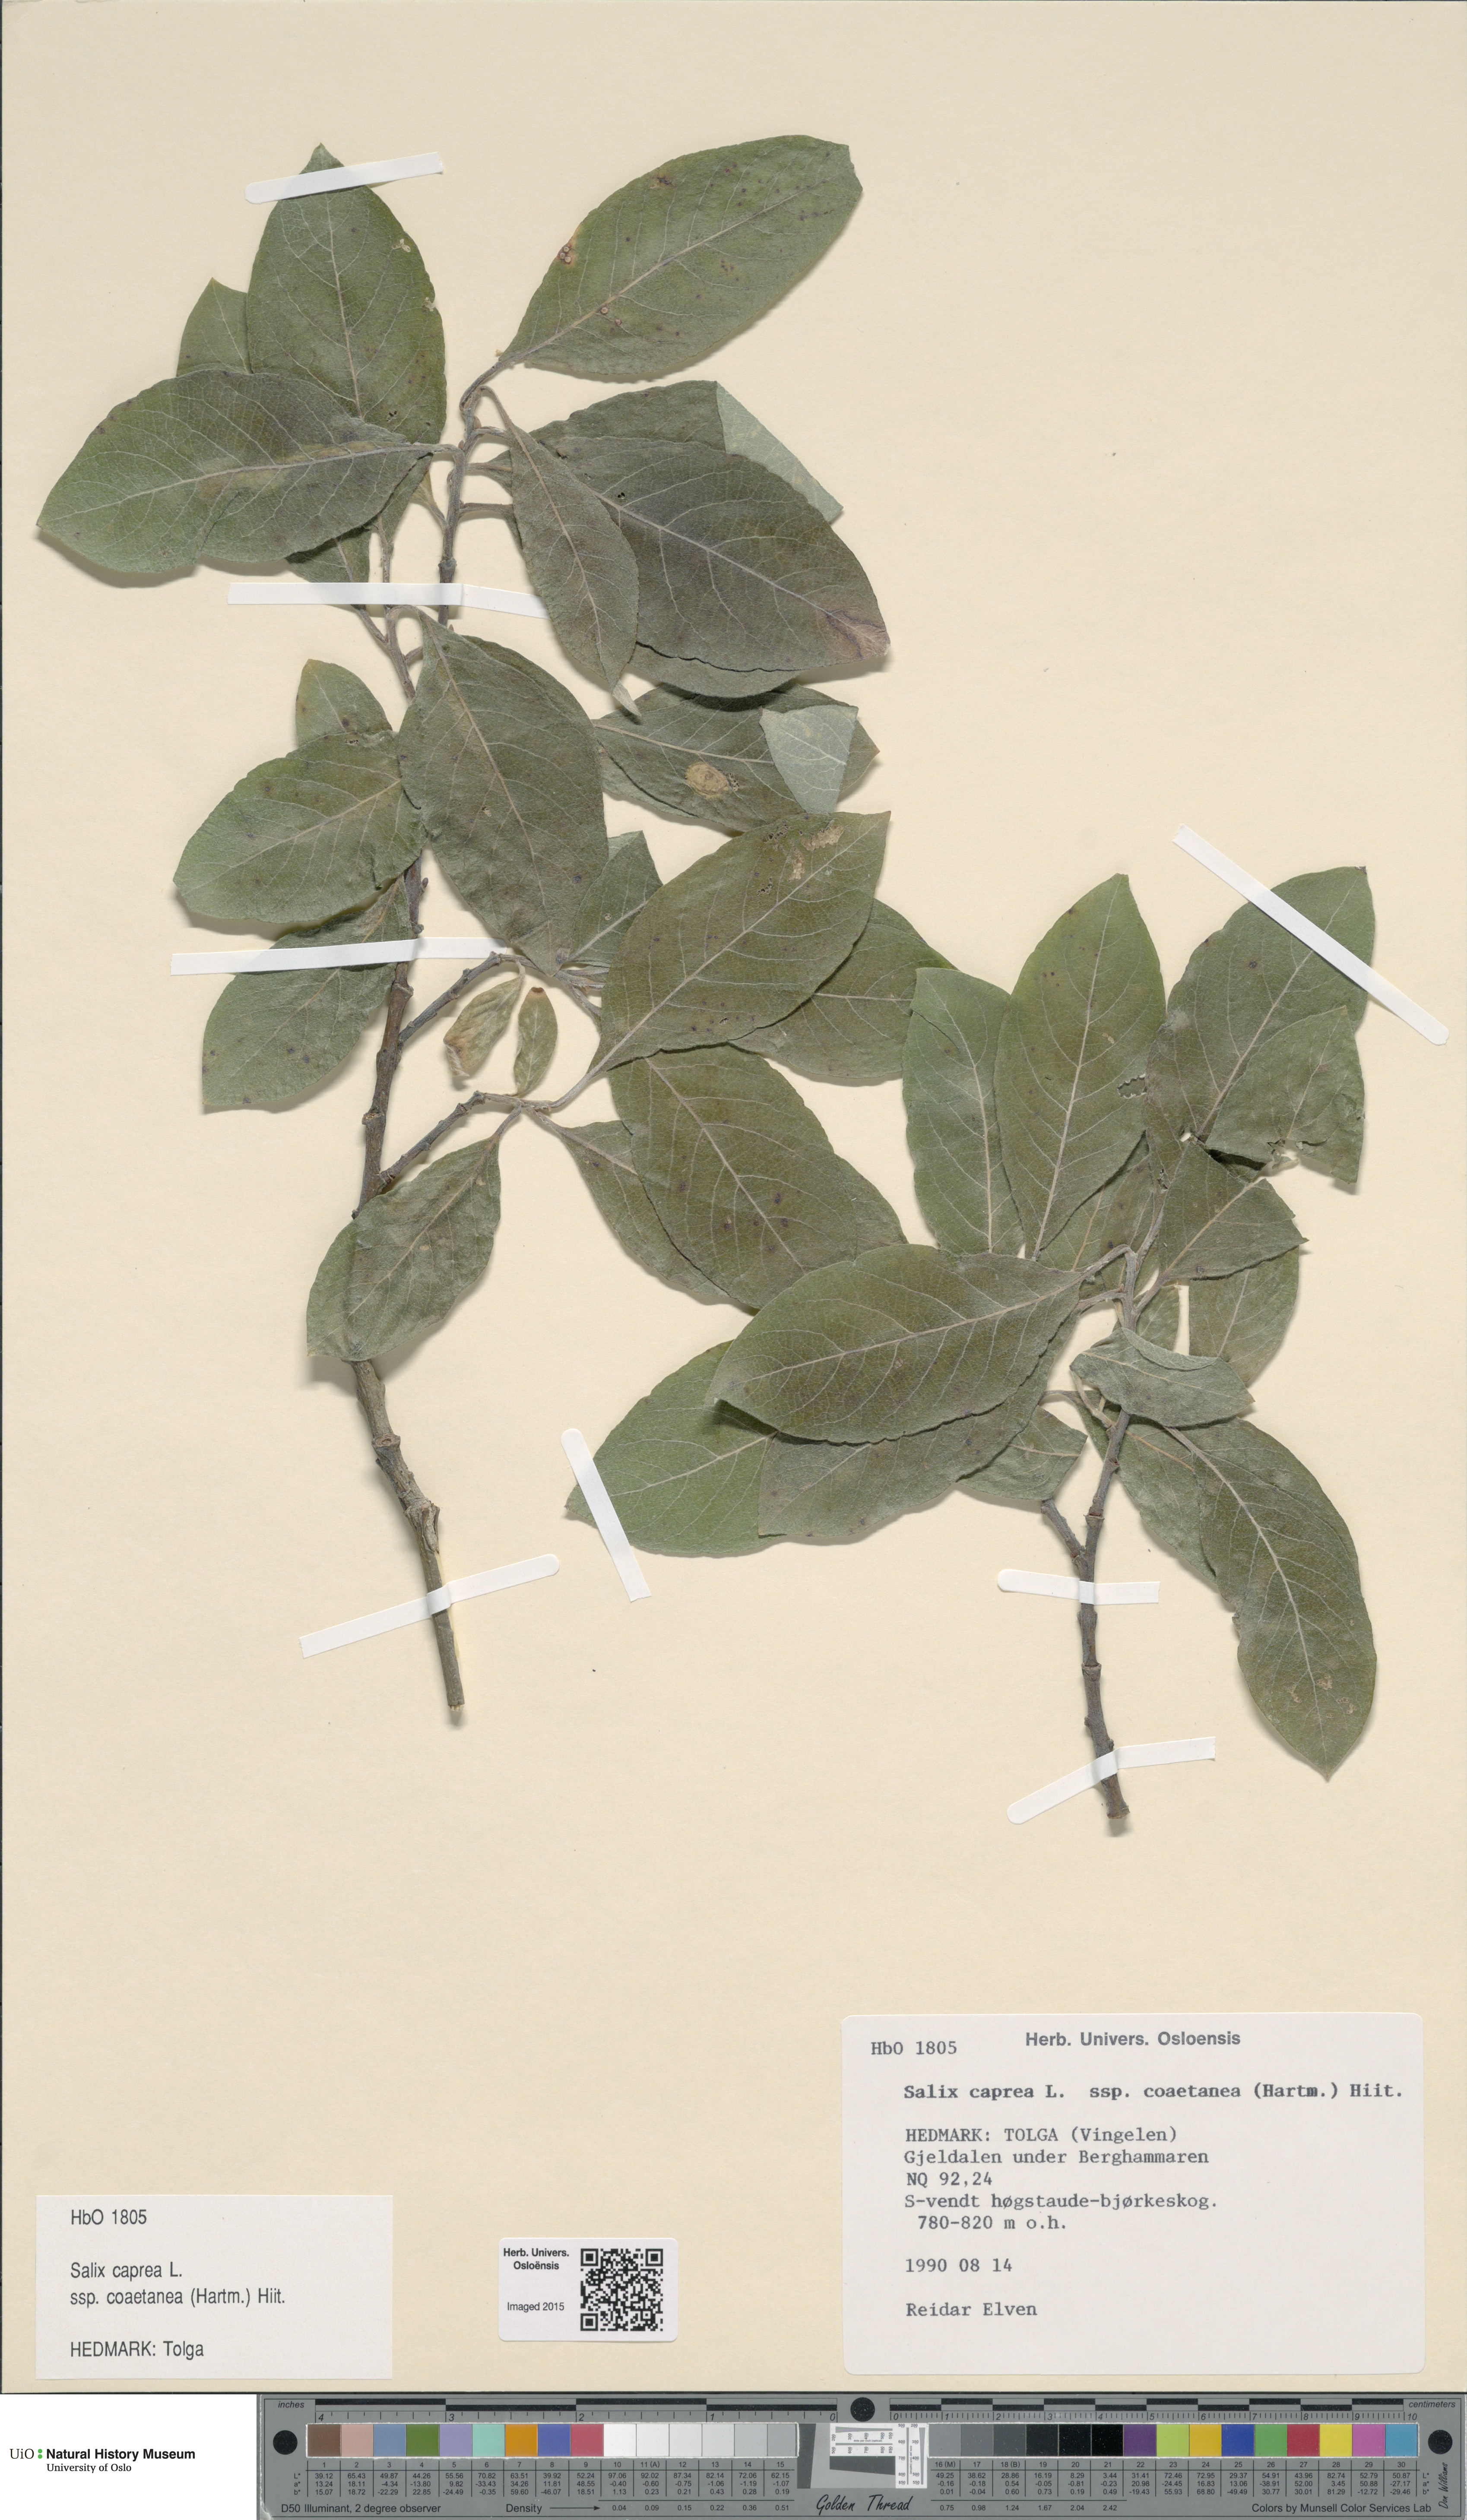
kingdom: Plantae
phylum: Tracheophyta
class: Magnoliopsida
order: Malpighiales
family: Salicaceae
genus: Salix
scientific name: Salix caprea
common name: Goat willow
